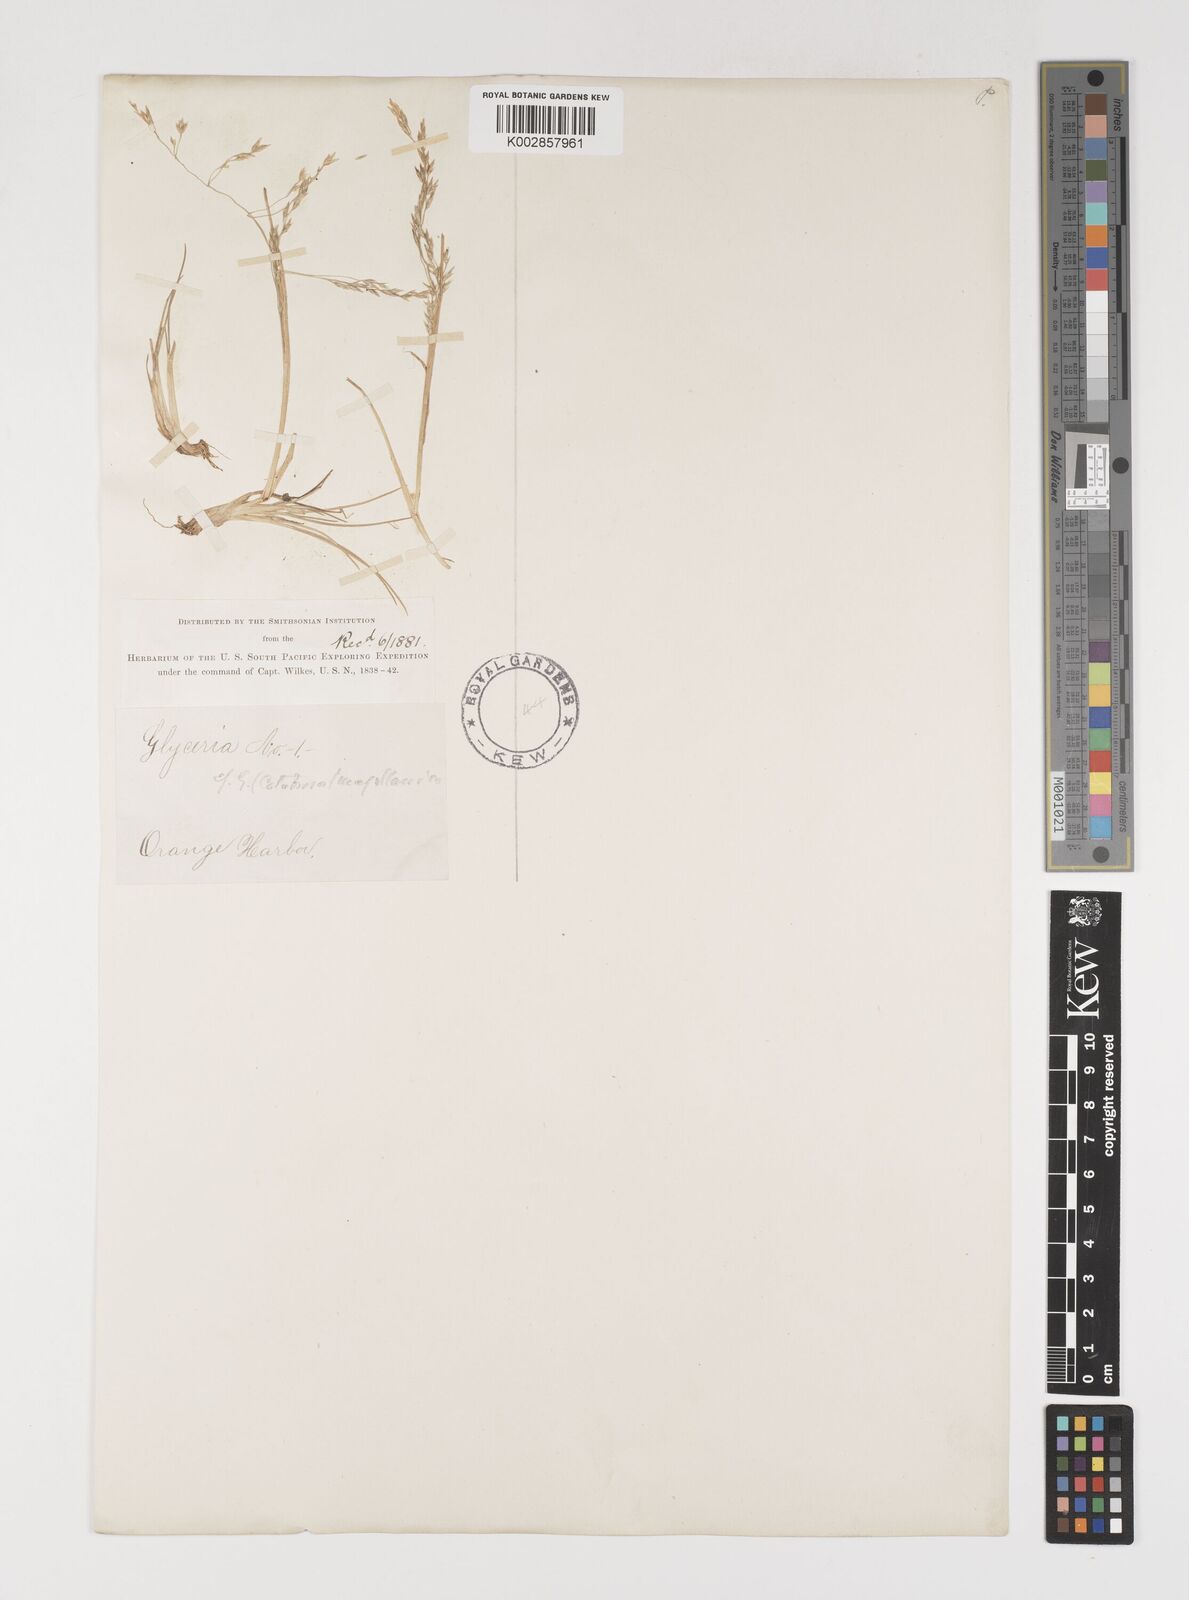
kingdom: Plantae
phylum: Tracheophyta
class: Liliopsida
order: Poales
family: Poaceae
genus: Puccinellia
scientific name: Puccinellia magellanica
